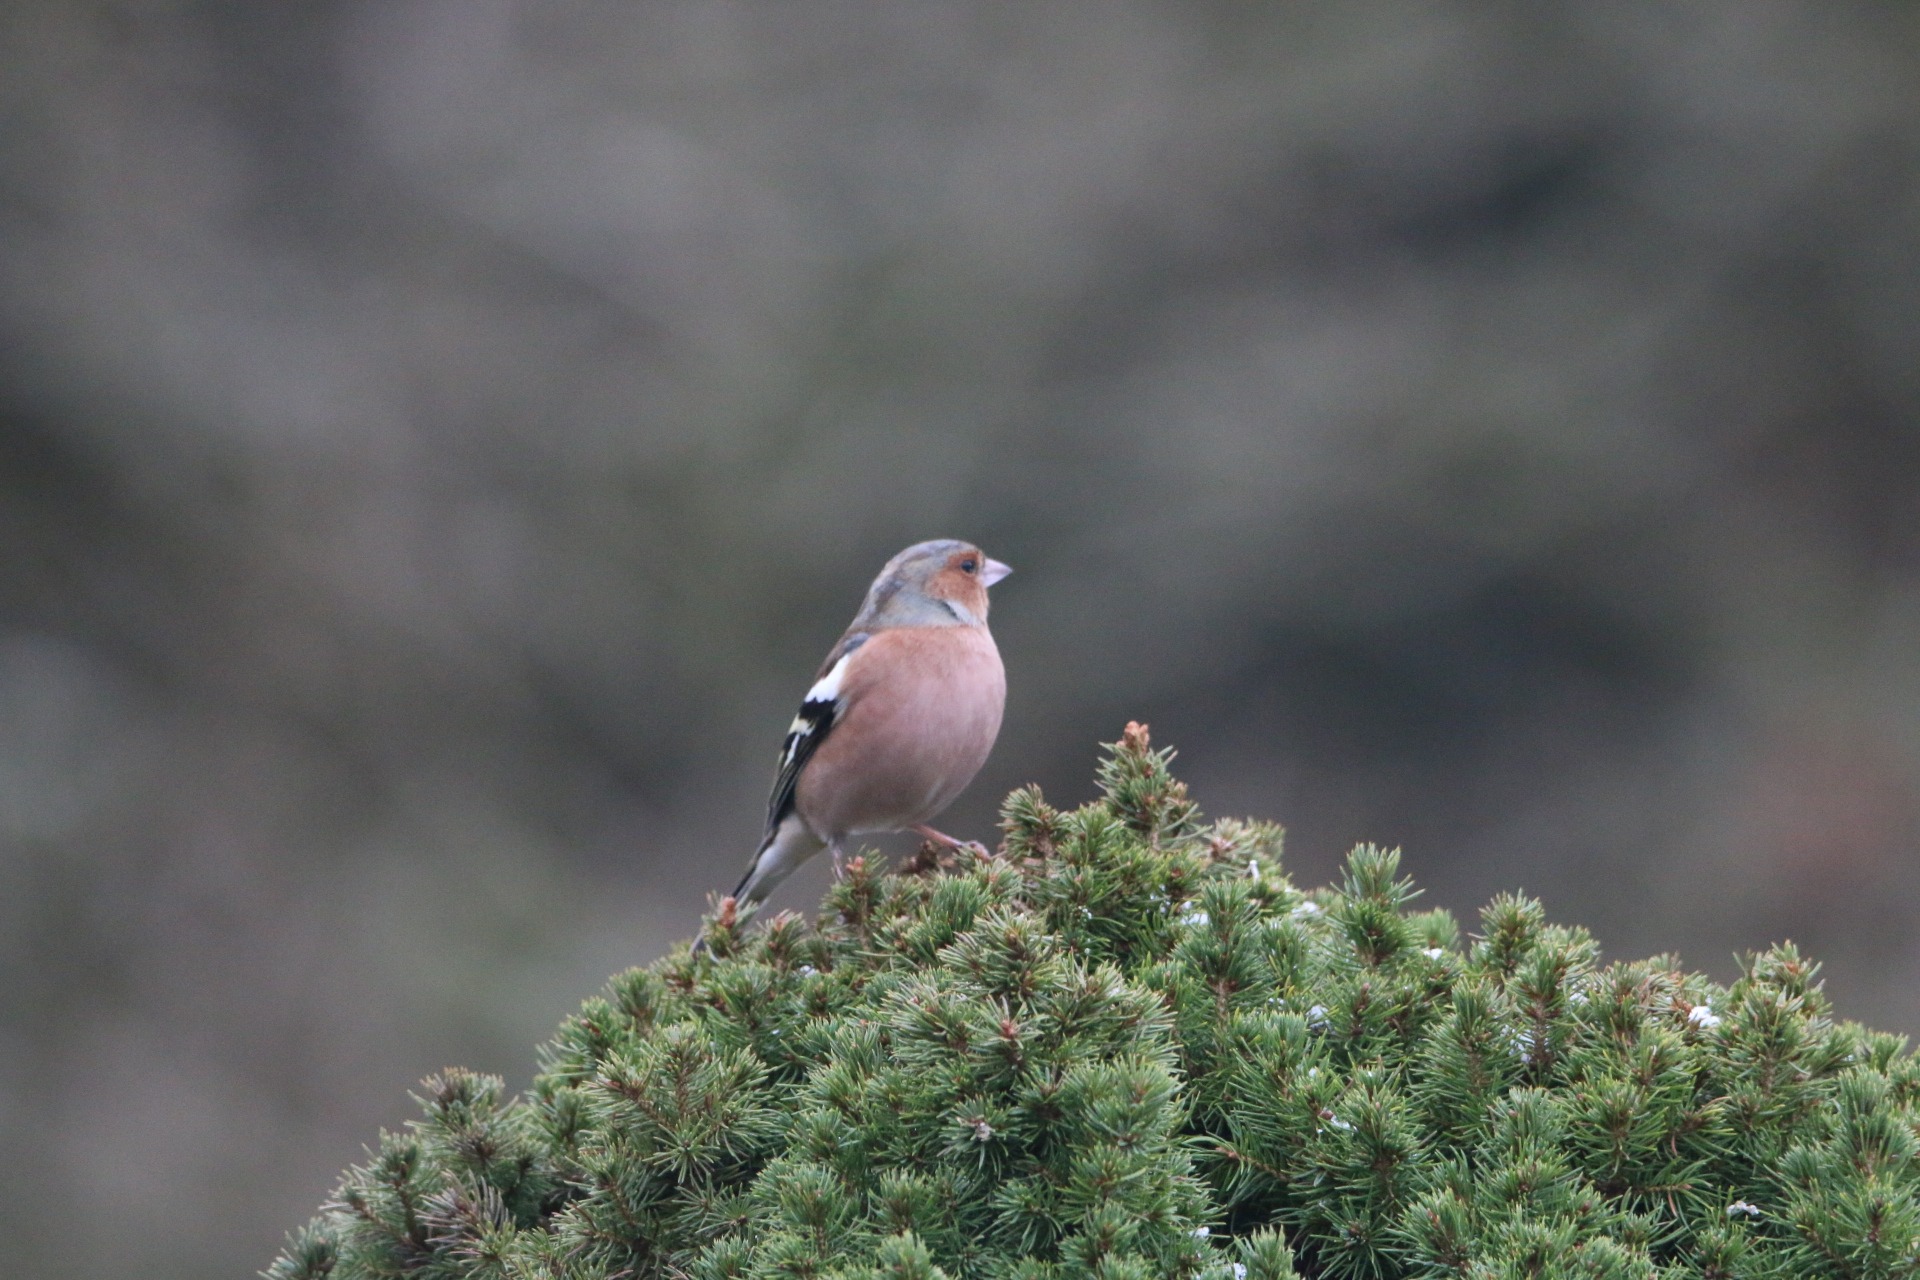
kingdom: Animalia
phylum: Chordata
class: Aves
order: Passeriformes
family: Fringillidae
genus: Fringilla
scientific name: Fringilla coelebs
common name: Bogfinke
